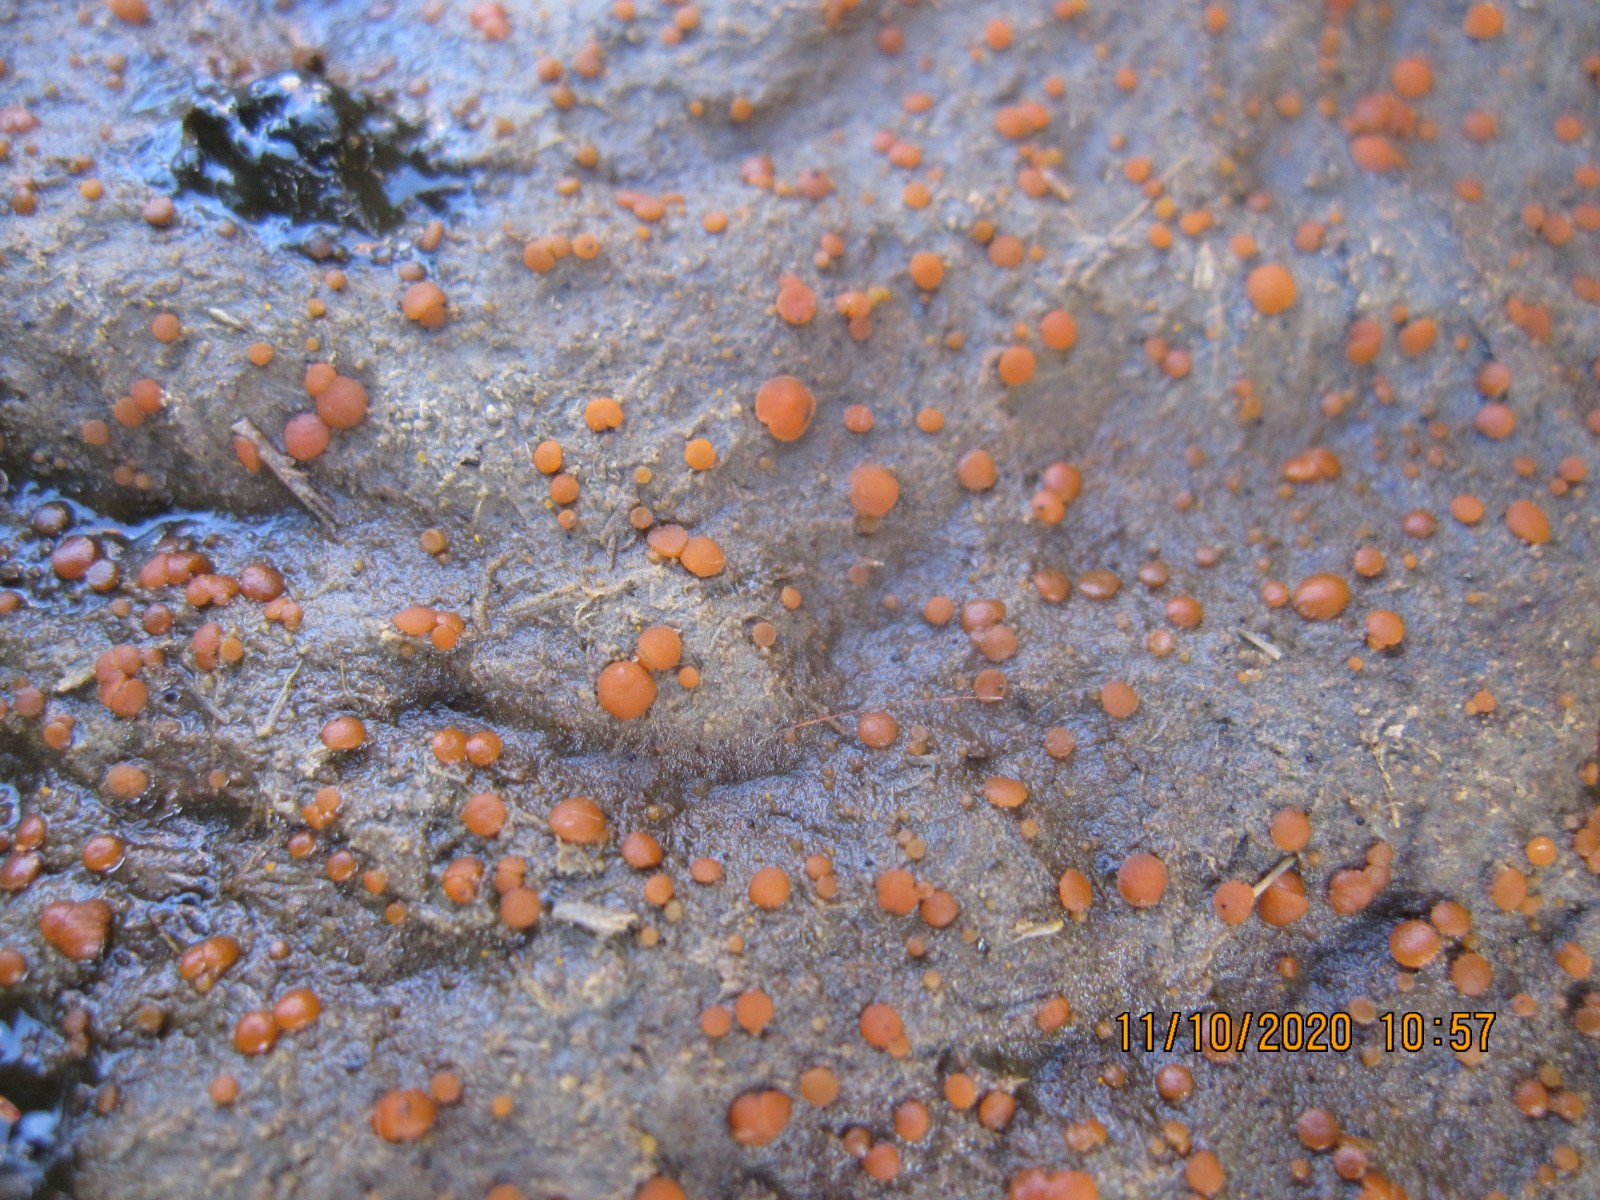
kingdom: Fungi
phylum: Ascomycota
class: Pezizomycetes
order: Pezizales
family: Pyronemataceae
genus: Cheilymenia
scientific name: Cheilymenia granulata
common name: møgbæger
